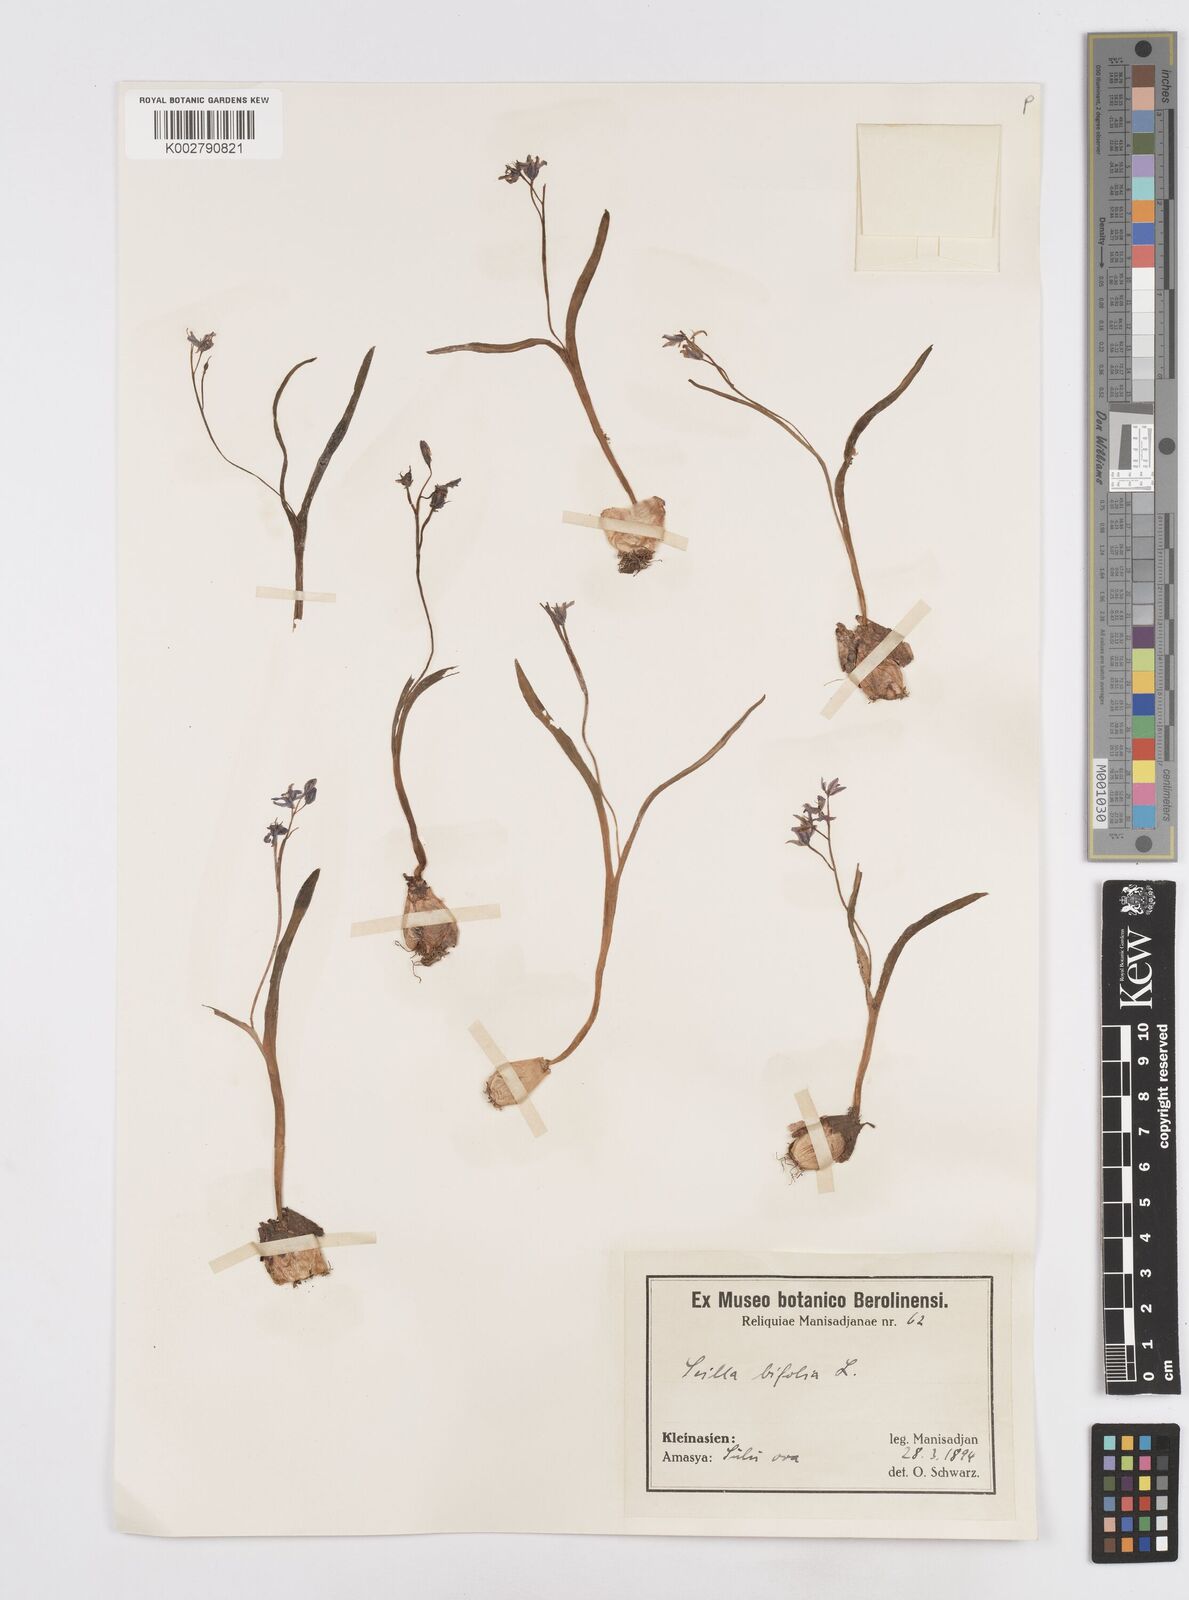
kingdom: Plantae
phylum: Tracheophyta
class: Liliopsida
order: Asparagales
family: Asparagaceae
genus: Scilla
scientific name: Scilla bifolia
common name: Alpine squill
